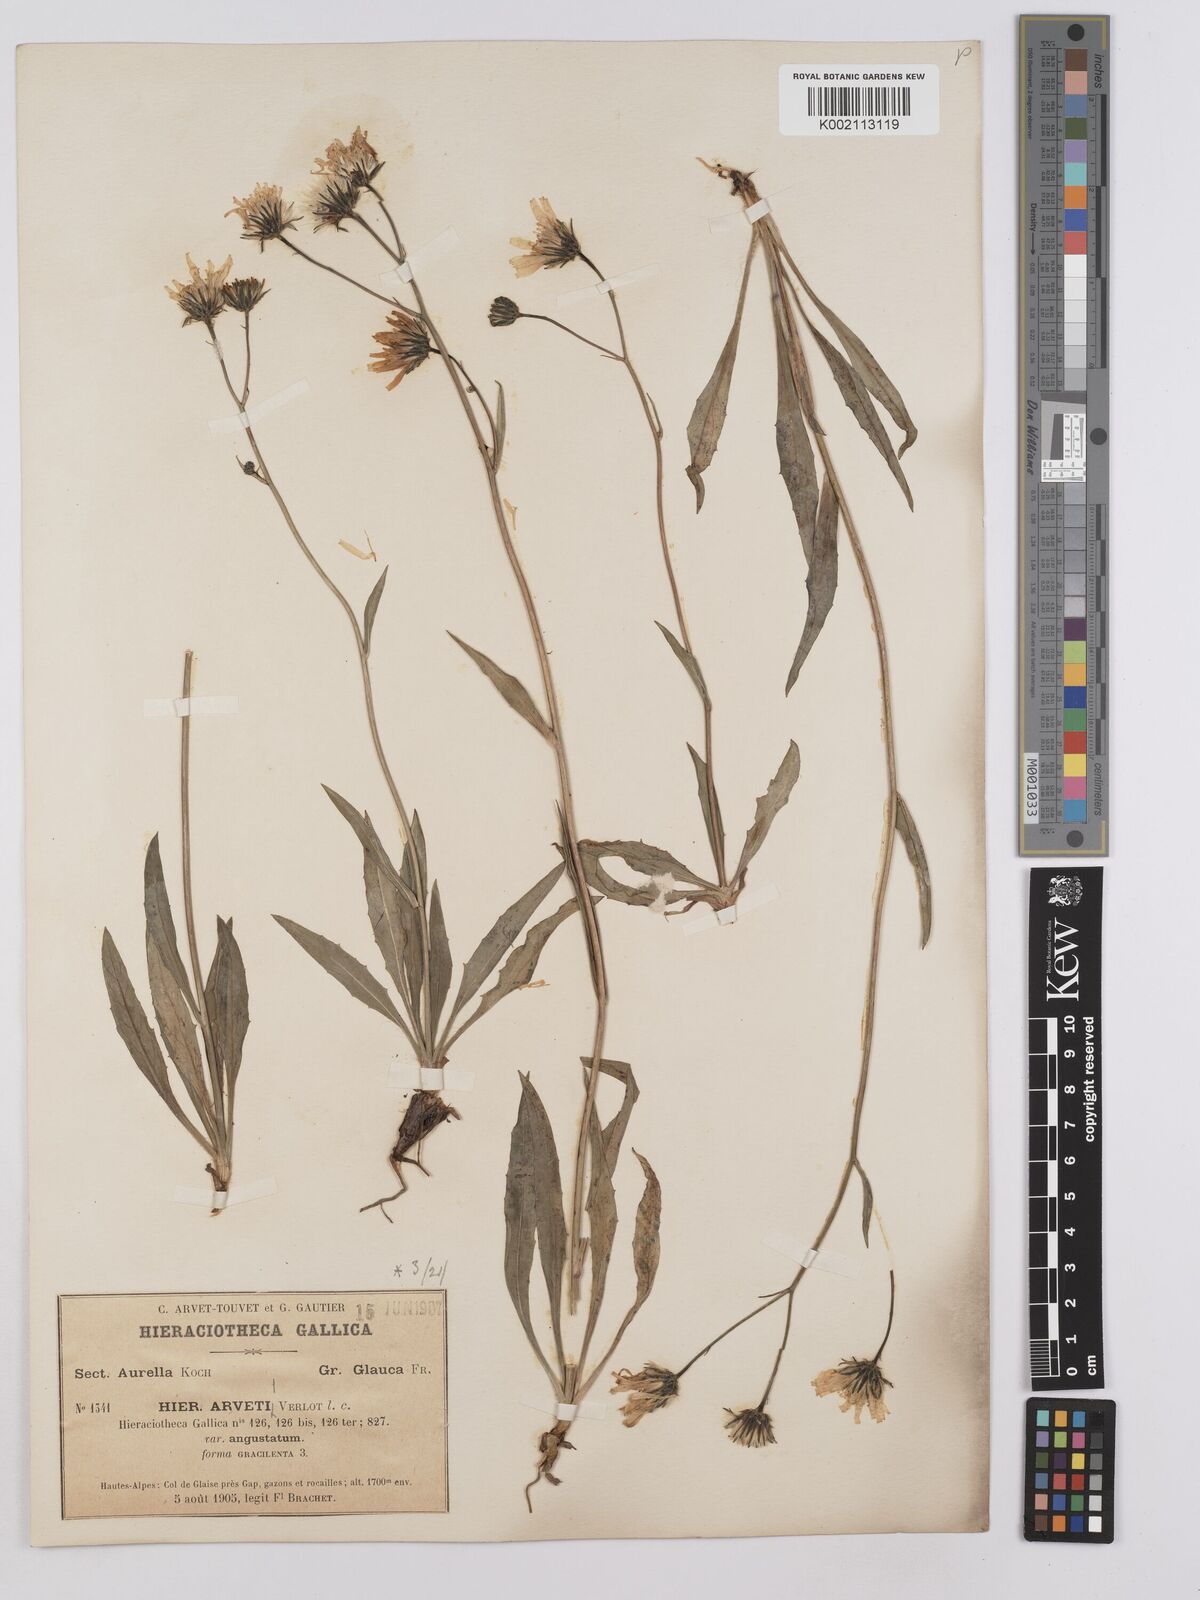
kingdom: Plantae
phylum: Tracheophyta
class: Magnoliopsida
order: Asterales
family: Asteraceae
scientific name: Asteraceae
